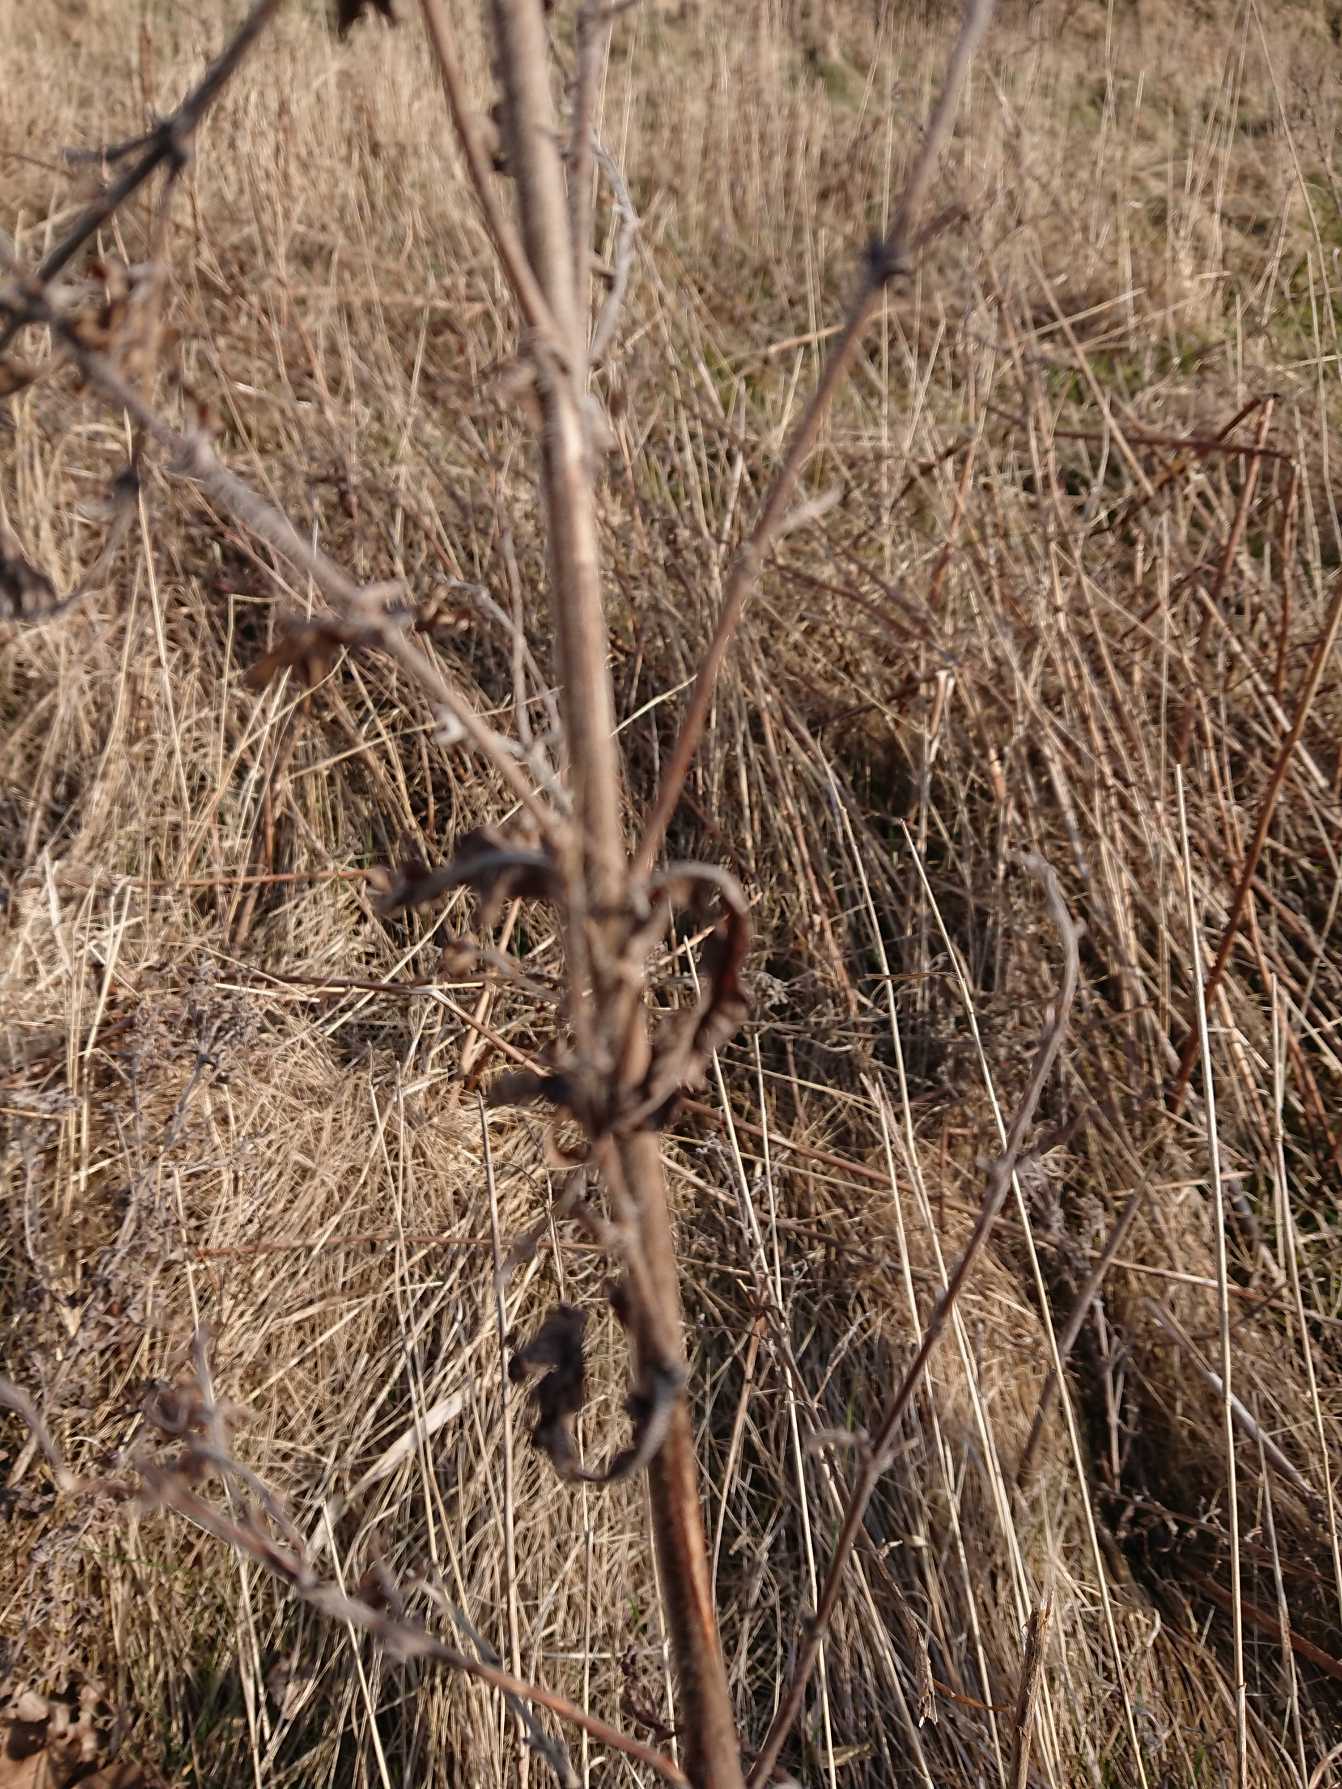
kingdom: Plantae
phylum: Tracheophyta
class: Magnoliopsida
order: Myrtales
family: Onagraceae
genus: Epilobium
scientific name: Epilobium hirsutum
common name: Lådden dueurt
